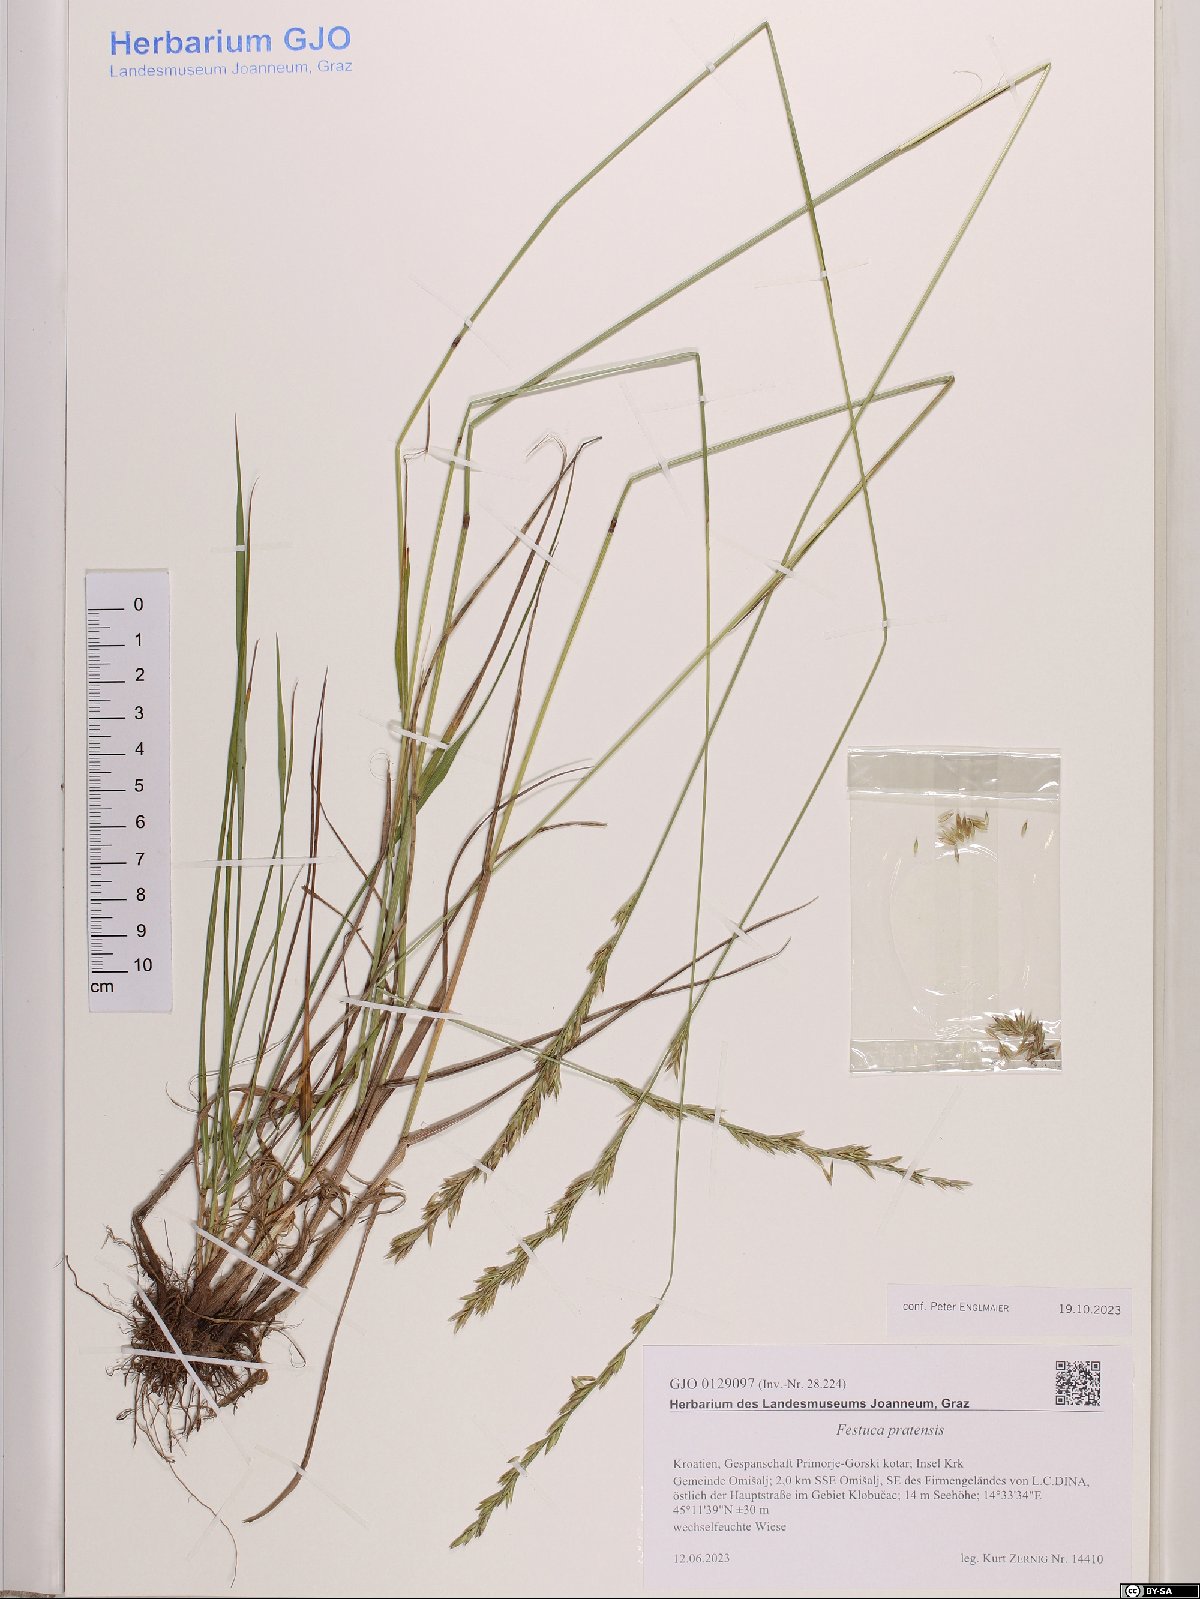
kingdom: Plantae
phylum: Tracheophyta
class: Liliopsida
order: Poales
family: Poaceae
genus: Lolium
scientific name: Lolium pratense
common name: Dover grass
